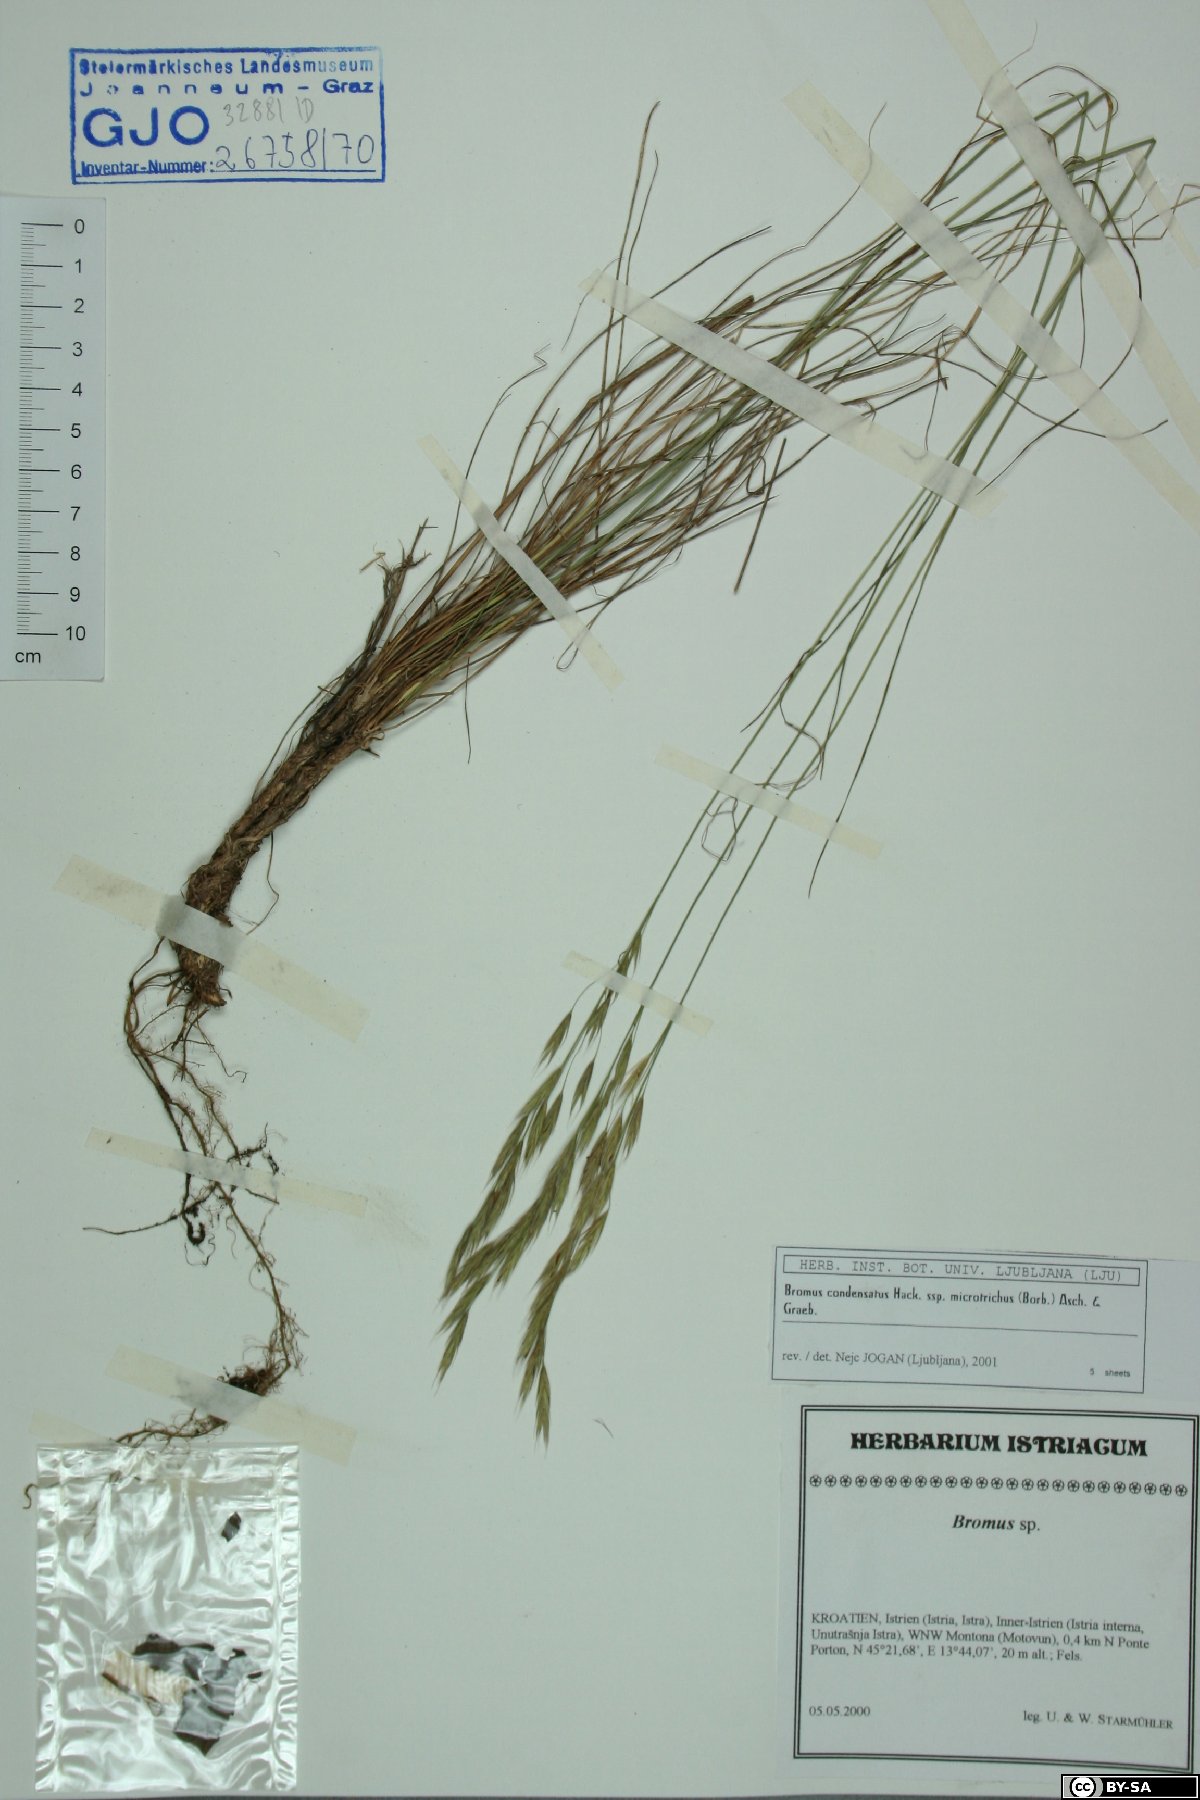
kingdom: Plantae
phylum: Tracheophyta
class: Liliopsida
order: Poales
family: Poaceae
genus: Bromus
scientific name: Bromus condensatus
